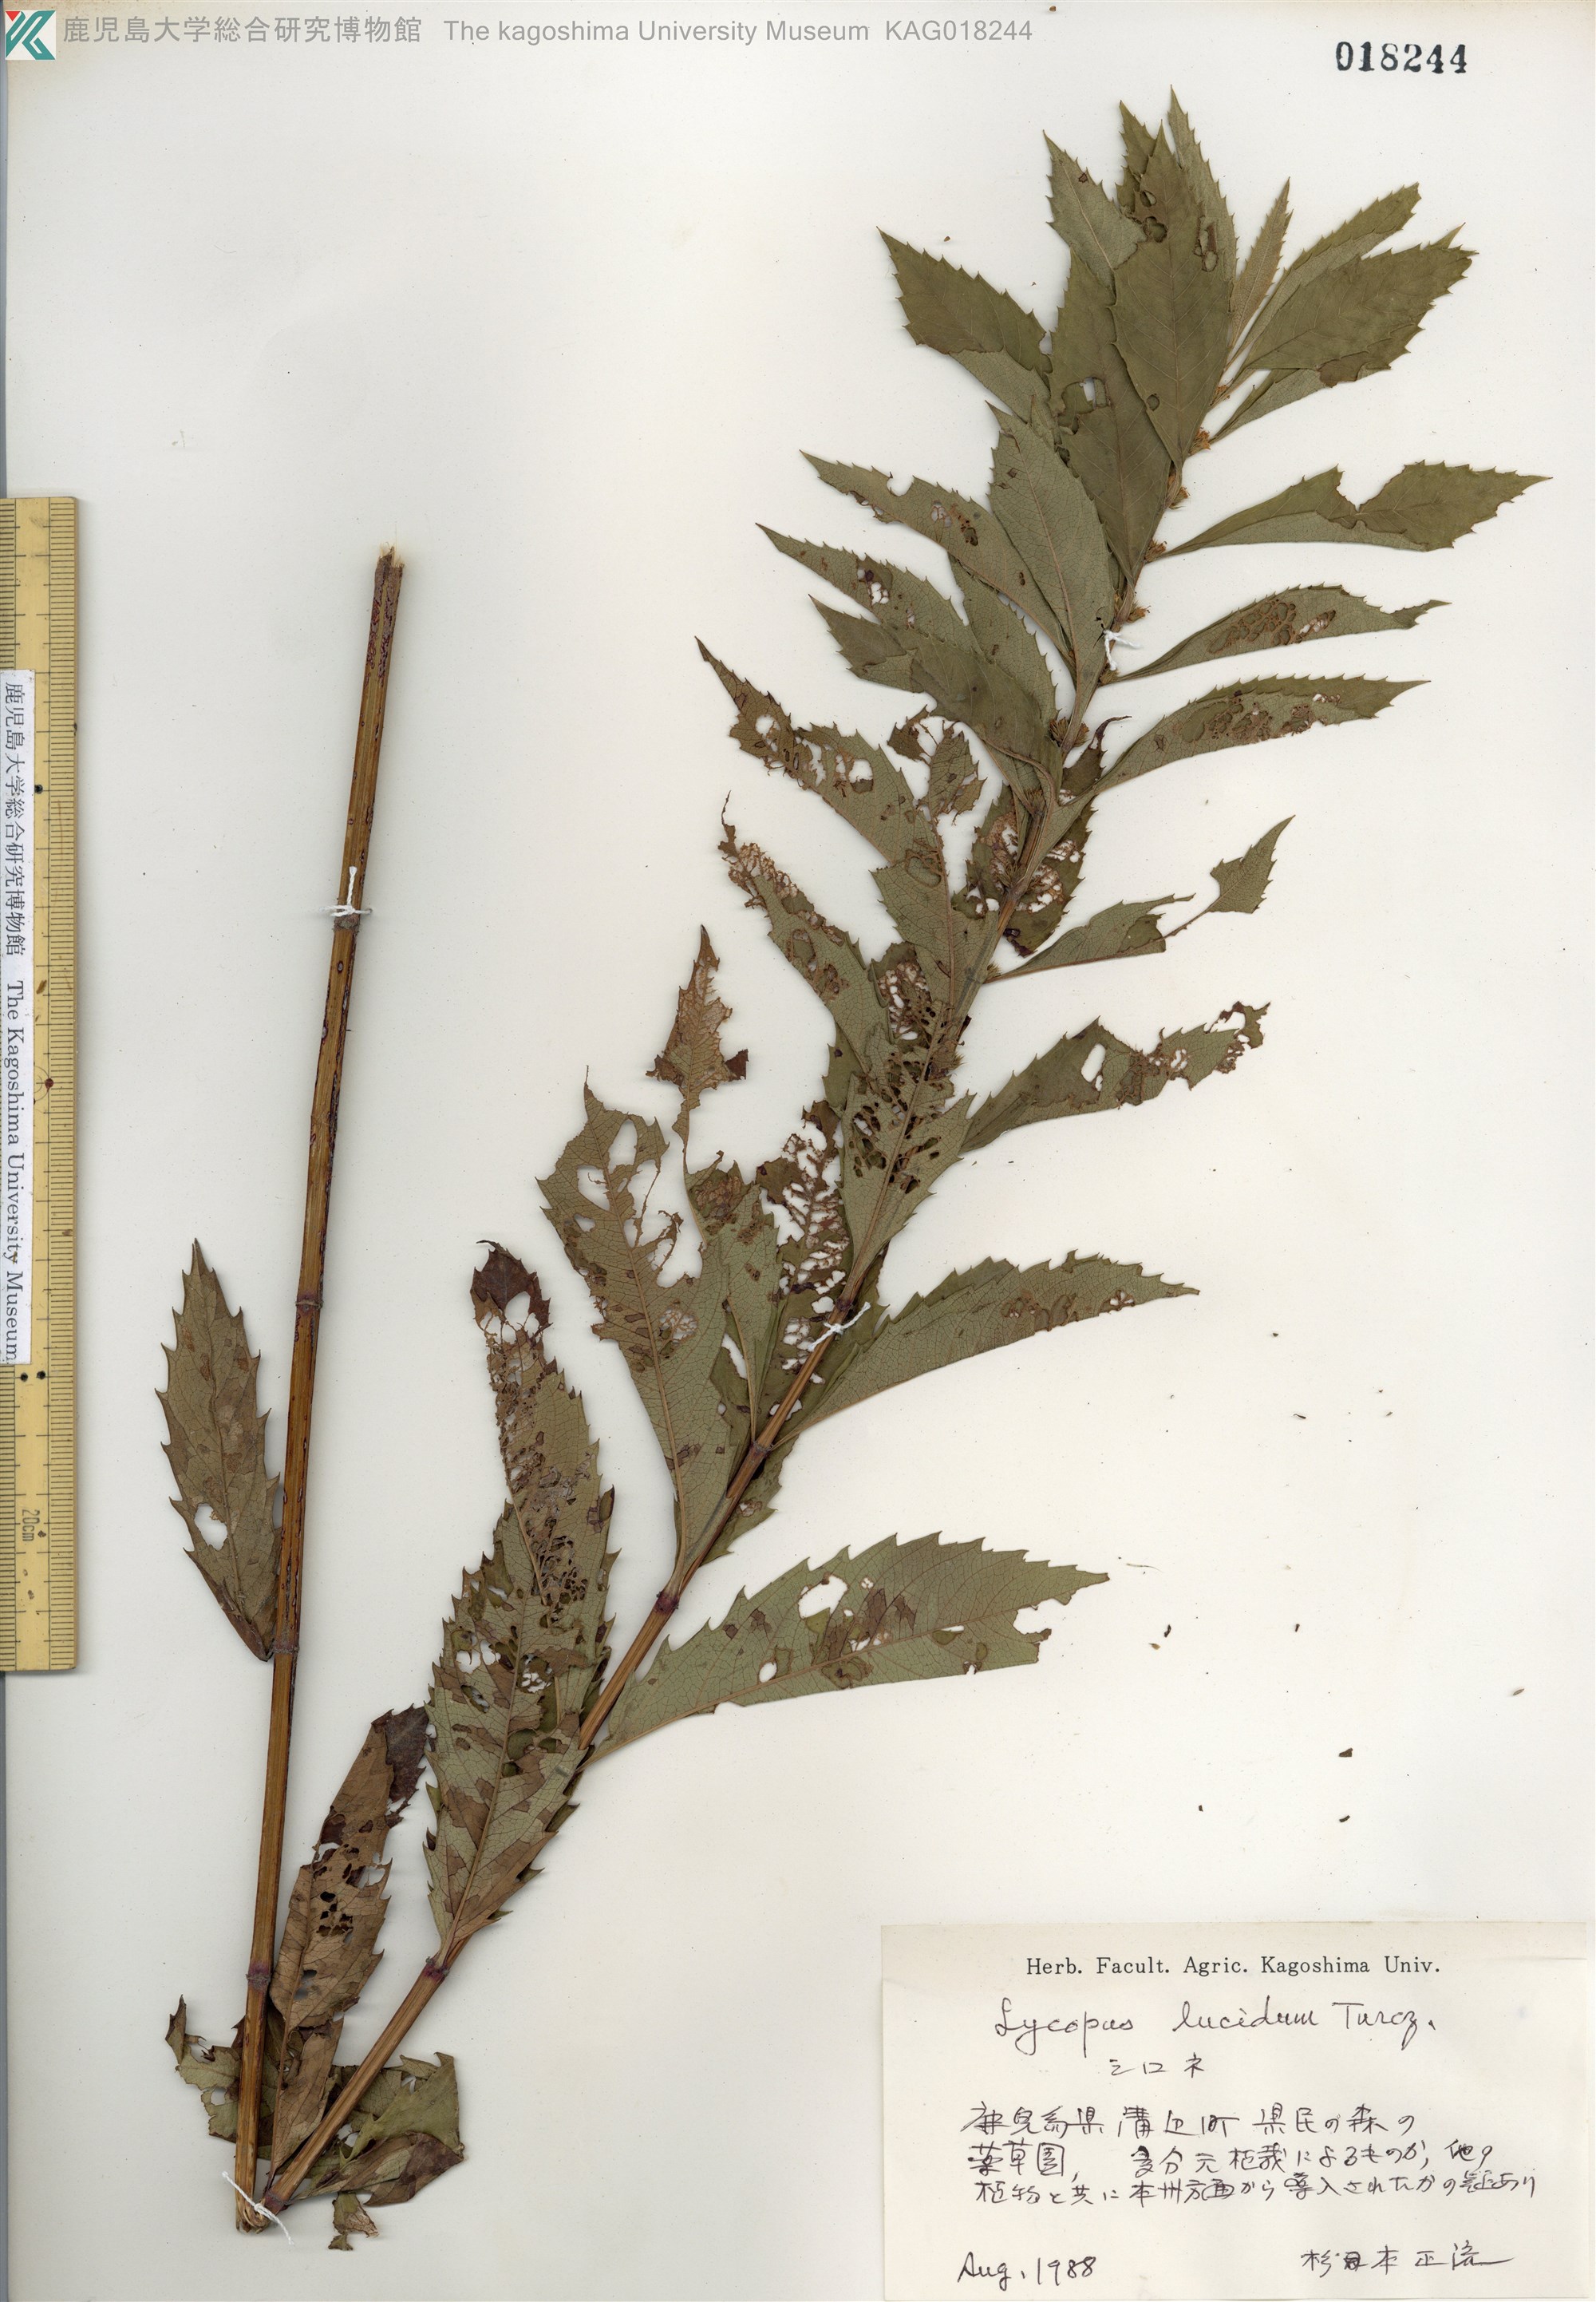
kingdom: Plantae
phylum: Tracheophyta
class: Magnoliopsida
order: Lamiales
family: Lamiaceae
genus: Lycopus
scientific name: Lycopus lucidus
